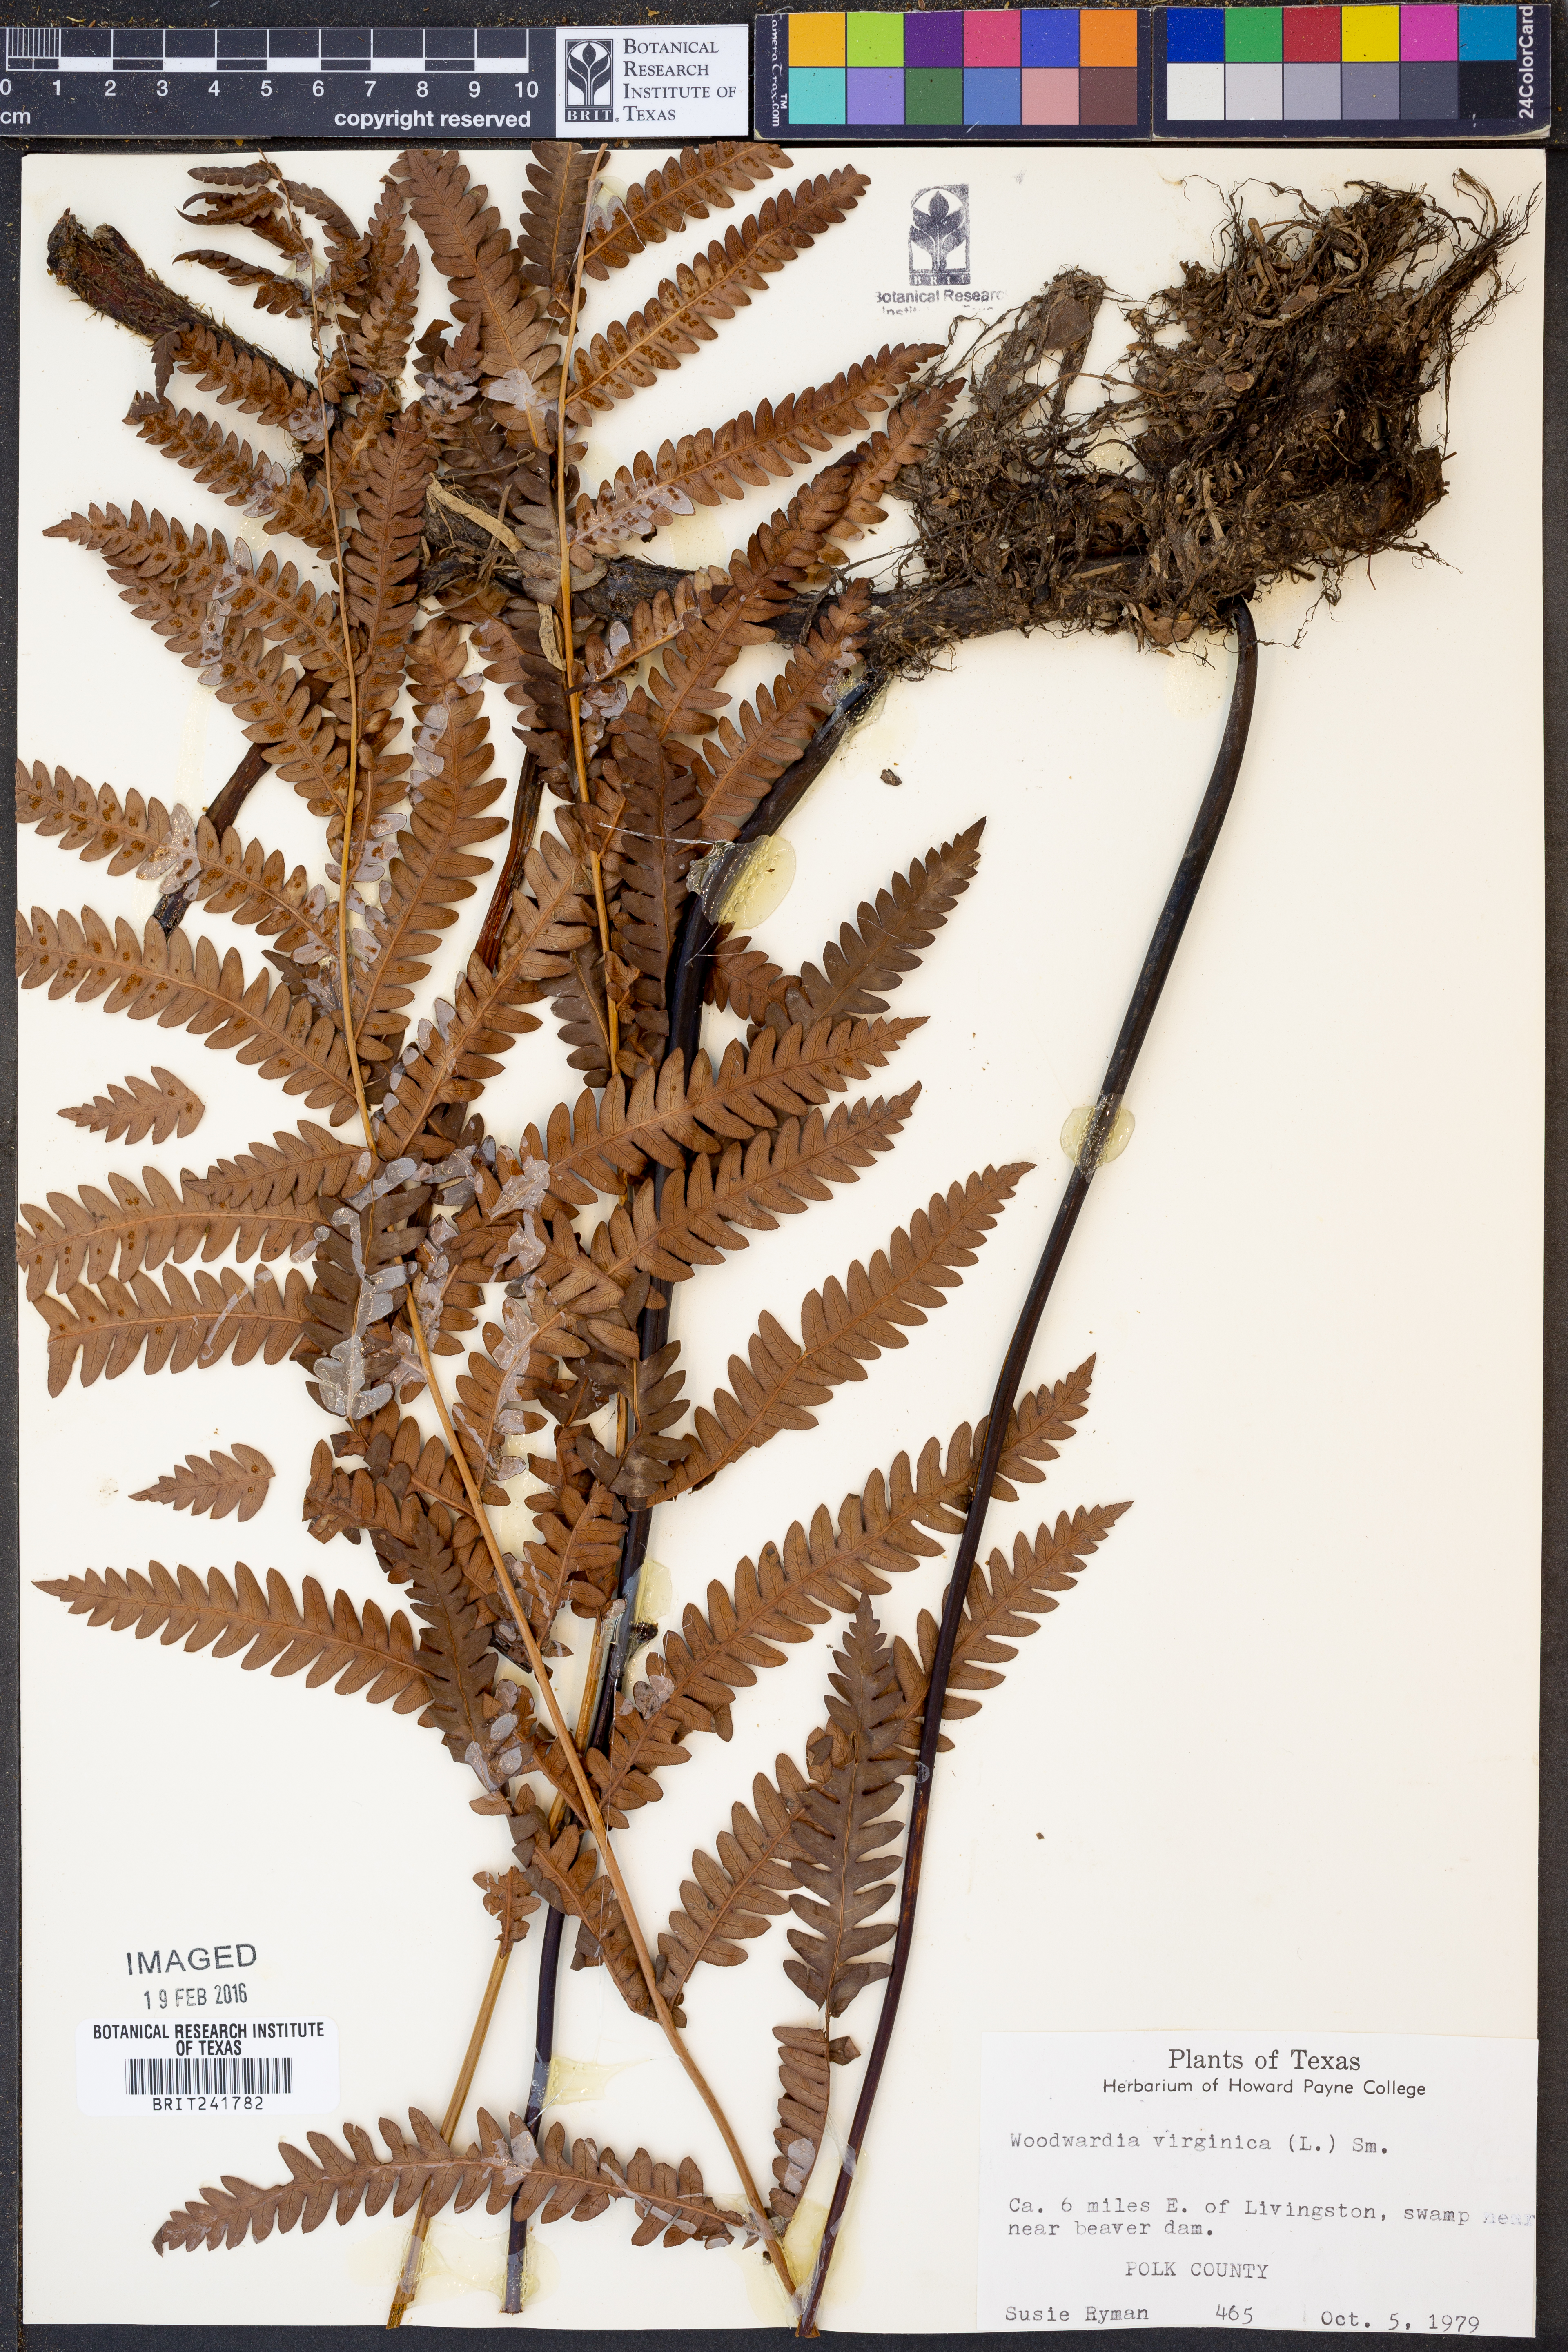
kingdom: Plantae
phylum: Tracheophyta
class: Polypodiopsida
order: Polypodiales
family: Blechnaceae
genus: Anchistea
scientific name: Anchistea virginica
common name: Virginia chain fern
